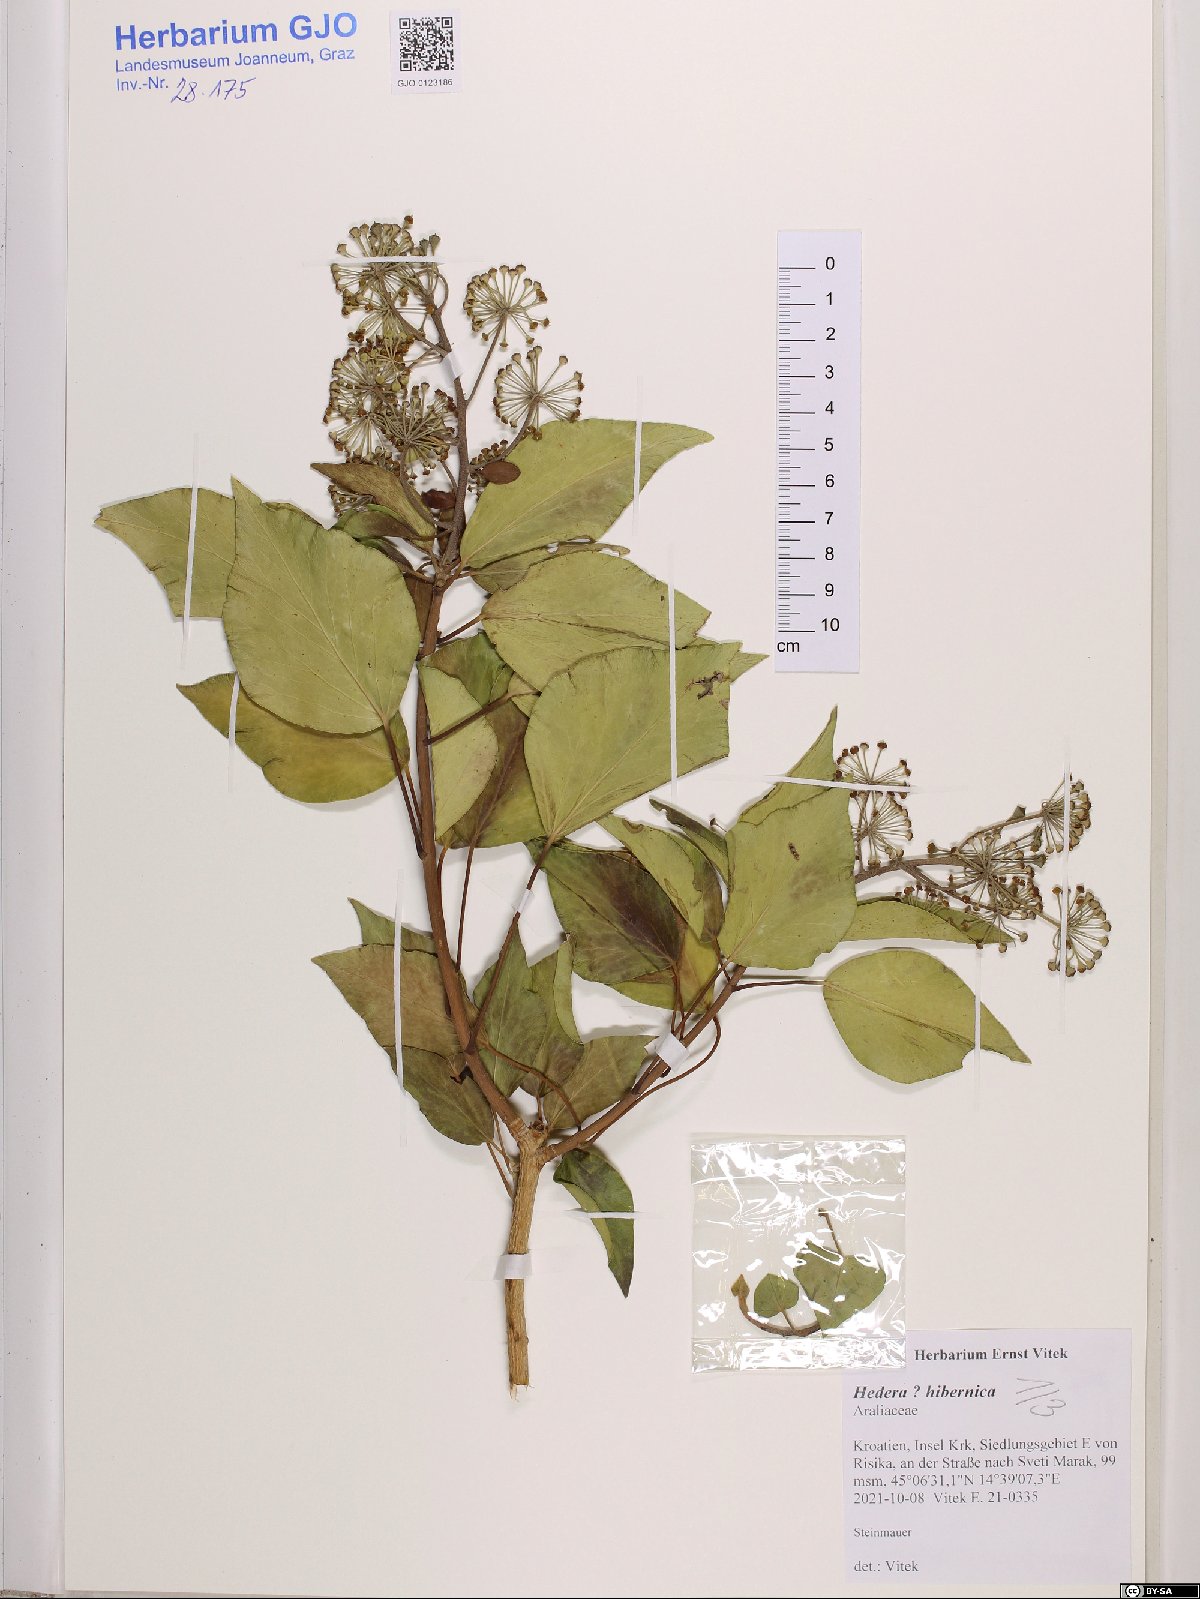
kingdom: Plantae
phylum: Tracheophyta
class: Magnoliopsida
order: Apiales
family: Araliaceae
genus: Hedera
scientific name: Hedera hibernica
